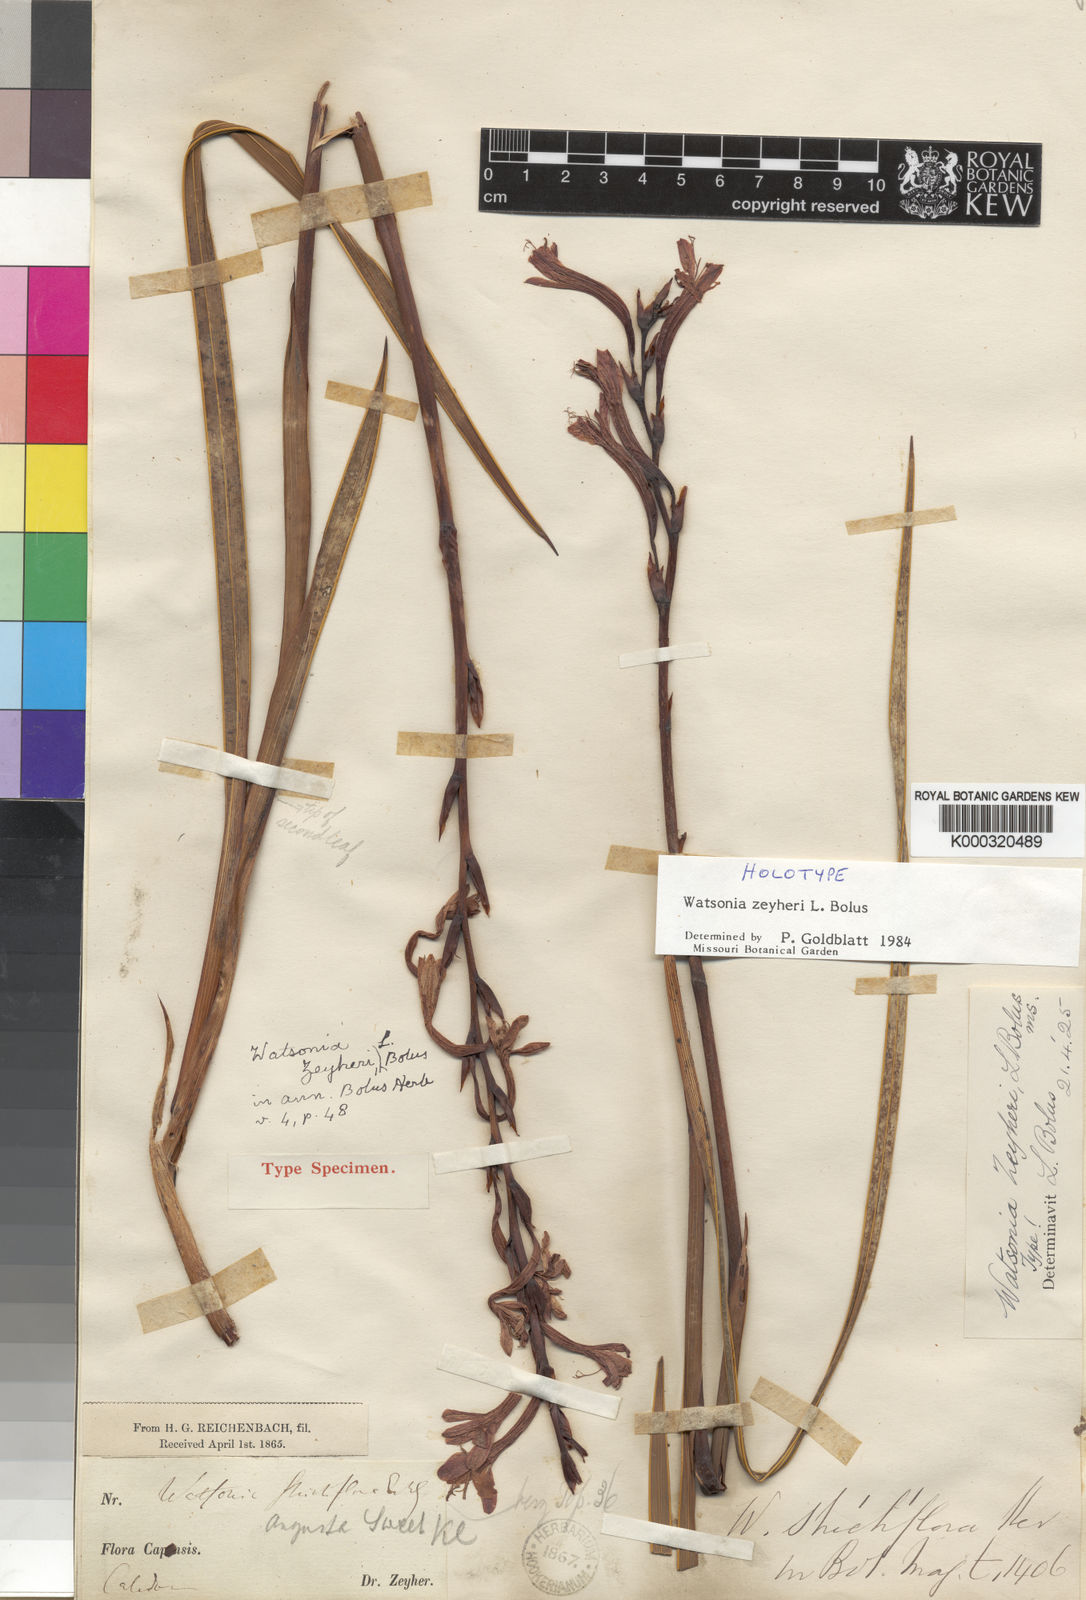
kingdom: Plantae
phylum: Tracheophyta
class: Liliopsida
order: Asparagales
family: Iridaceae
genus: Watsonia
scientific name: Watsonia zeyheri
